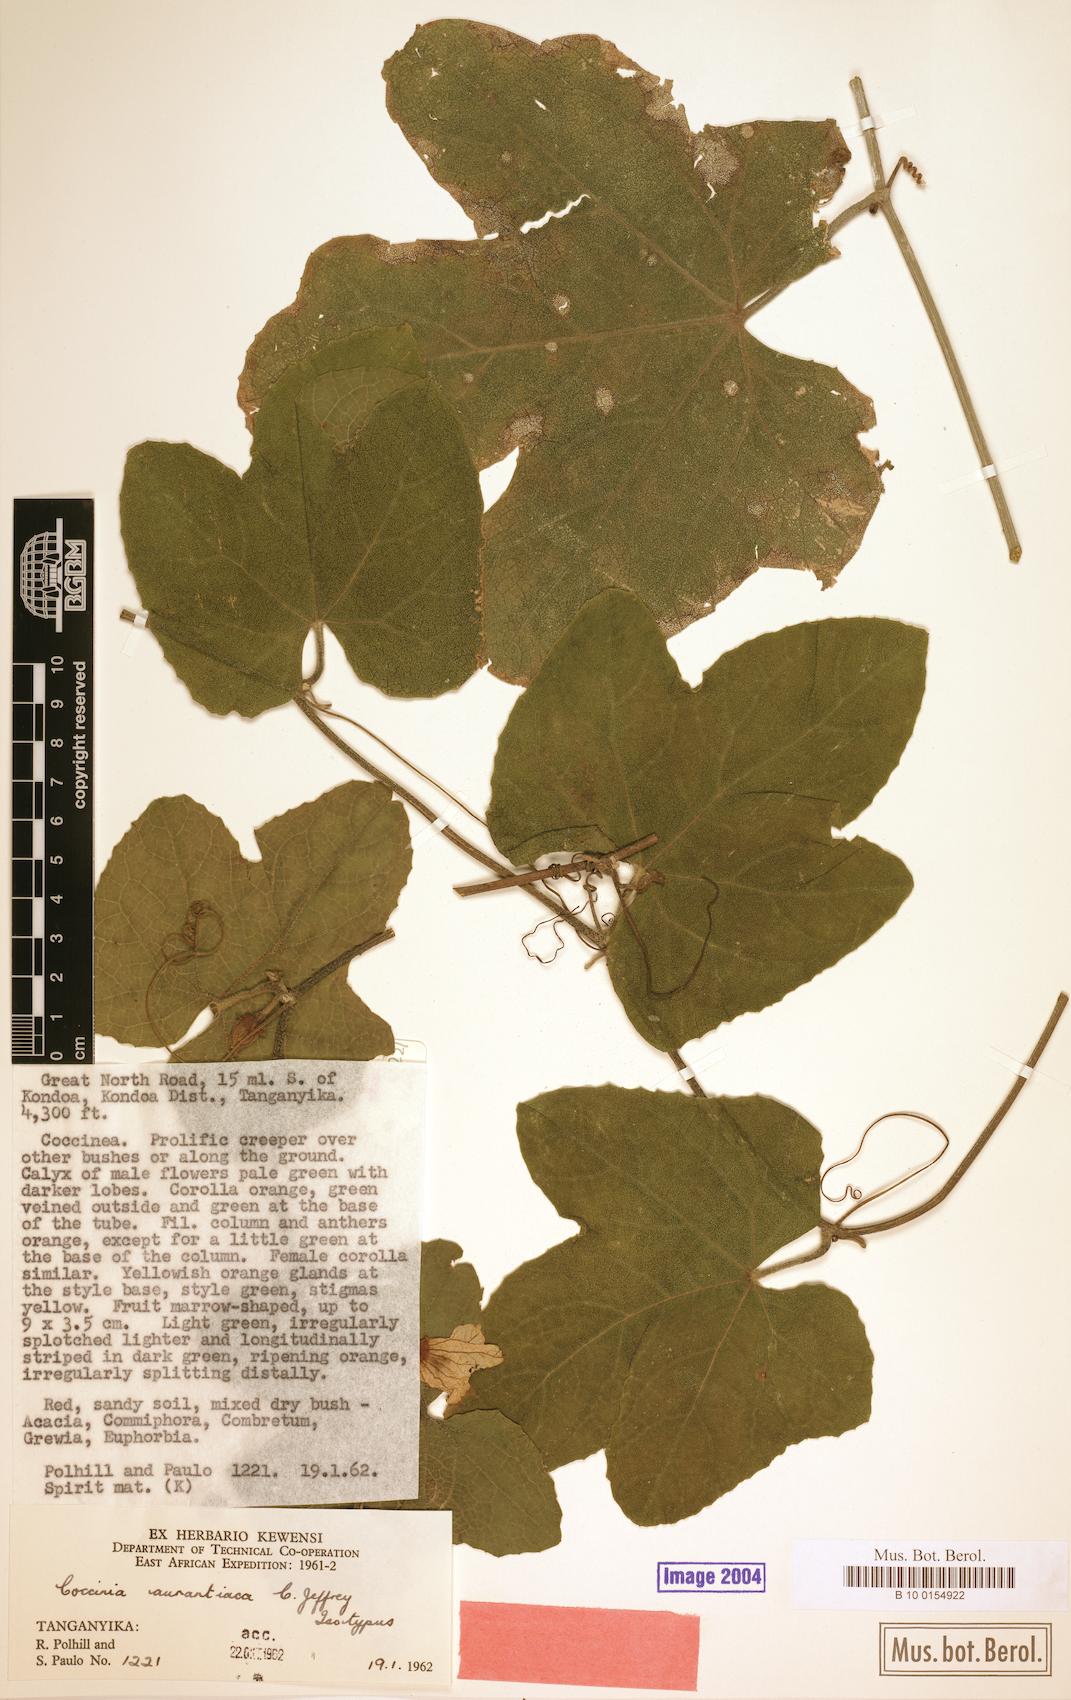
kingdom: Plantae
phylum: Tracheophyta
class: Magnoliopsida
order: Cucurbitales
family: Cucurbitaceae
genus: Coccinia
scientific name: Coccinia adoensis
